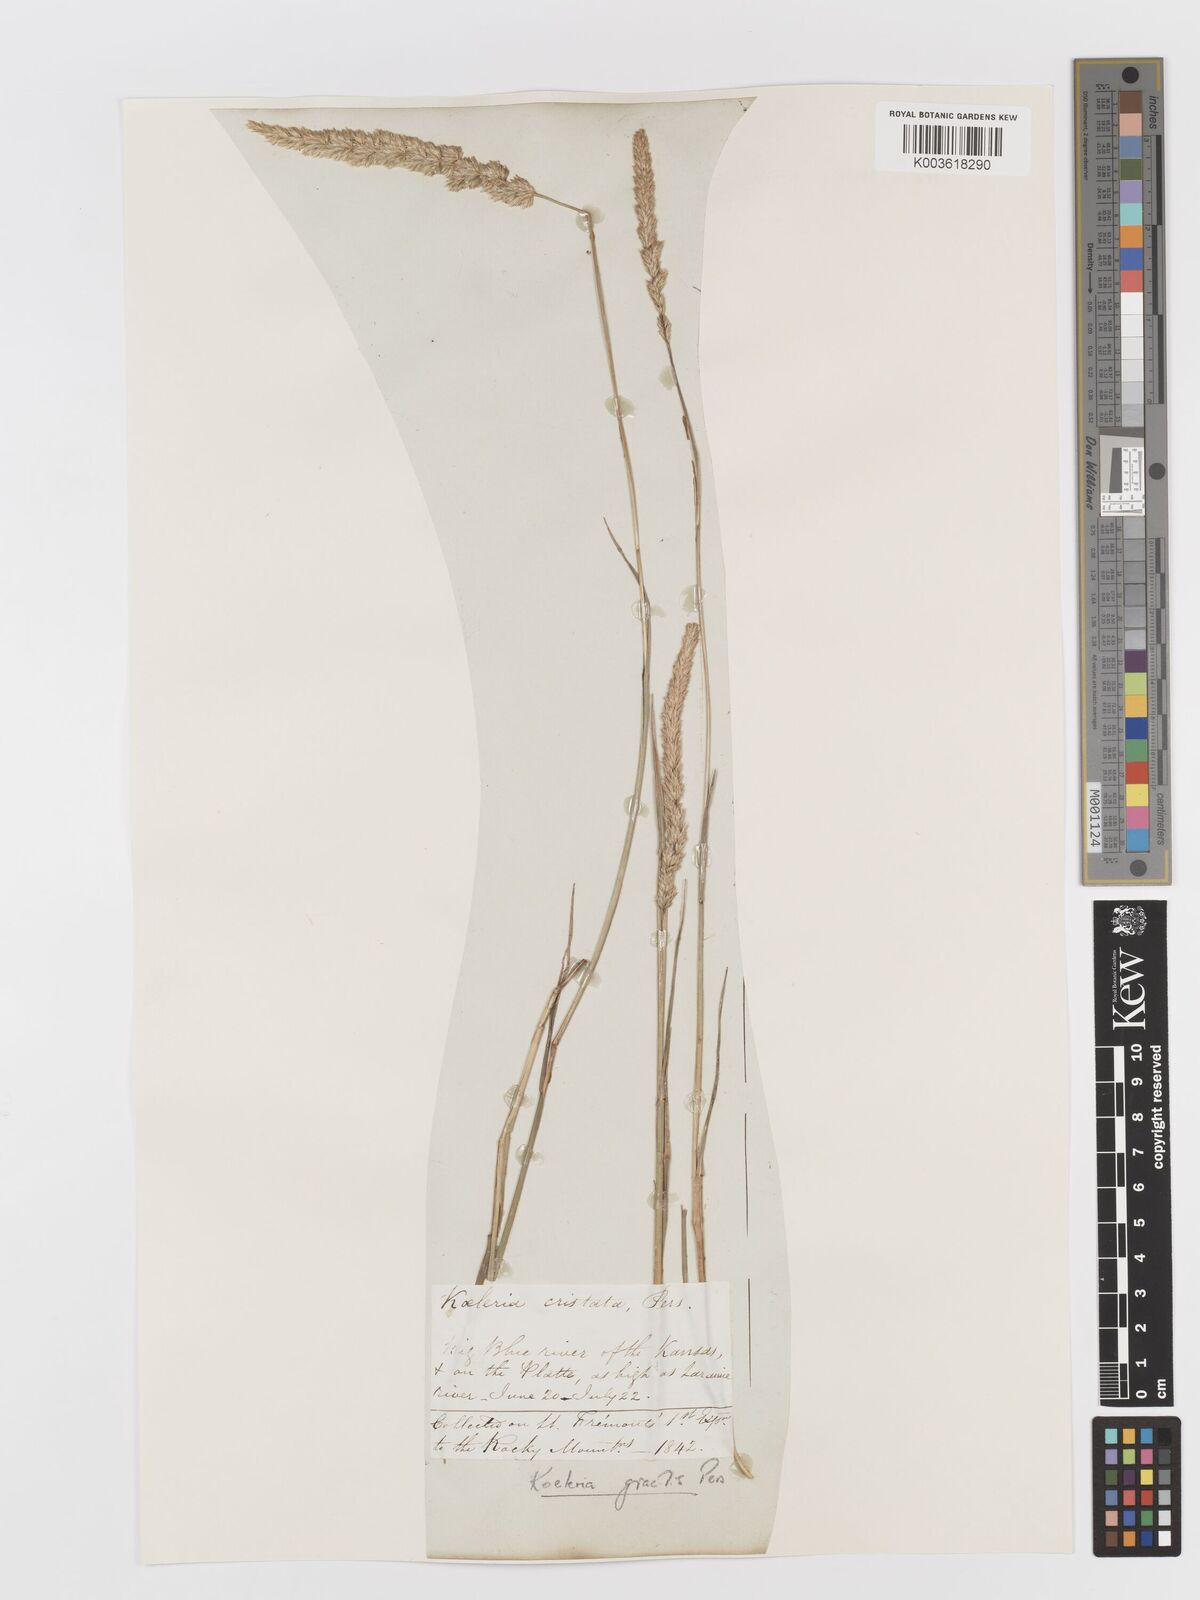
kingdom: Plantae
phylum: Tracheophyta
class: Liliopsida
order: Poales
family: Poaceae
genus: Koeleria
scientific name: Koeleria macrantha
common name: Crested hair-grass
